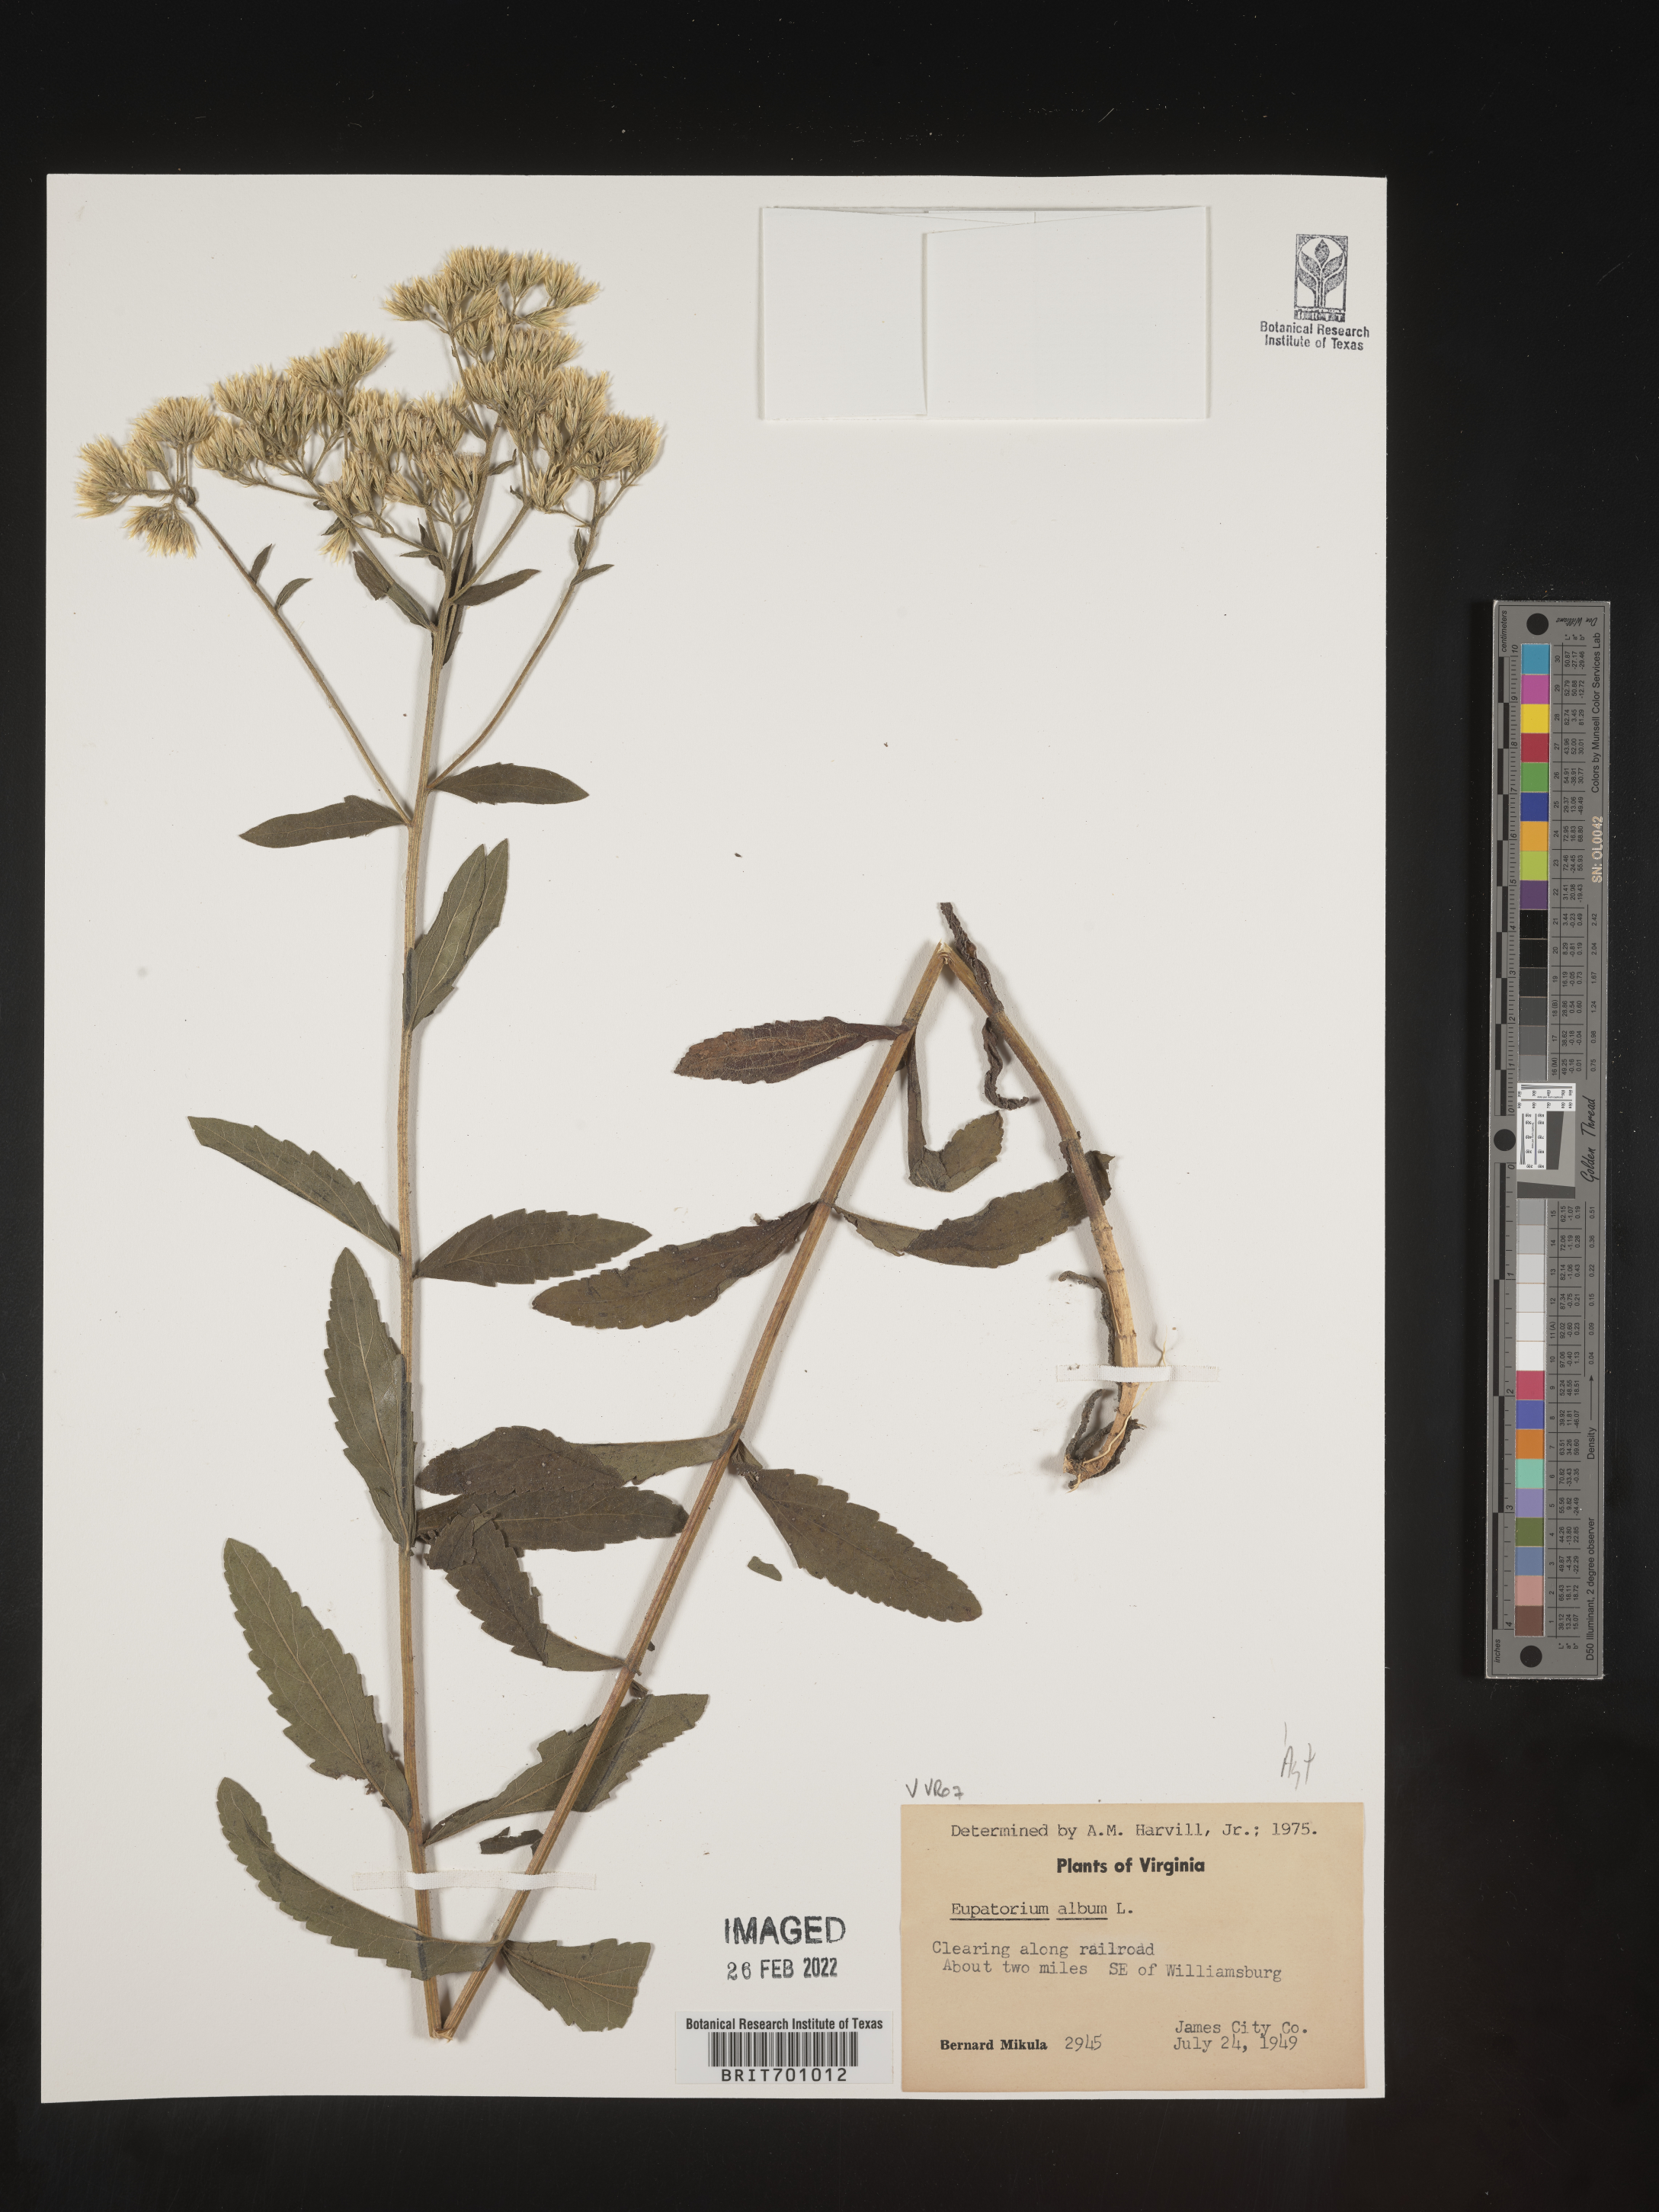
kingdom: Plantae
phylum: Tracheophyta
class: Magnoliopsida
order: Asterales
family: Asteraceae
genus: Eupatorium
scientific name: Eupatorium album
